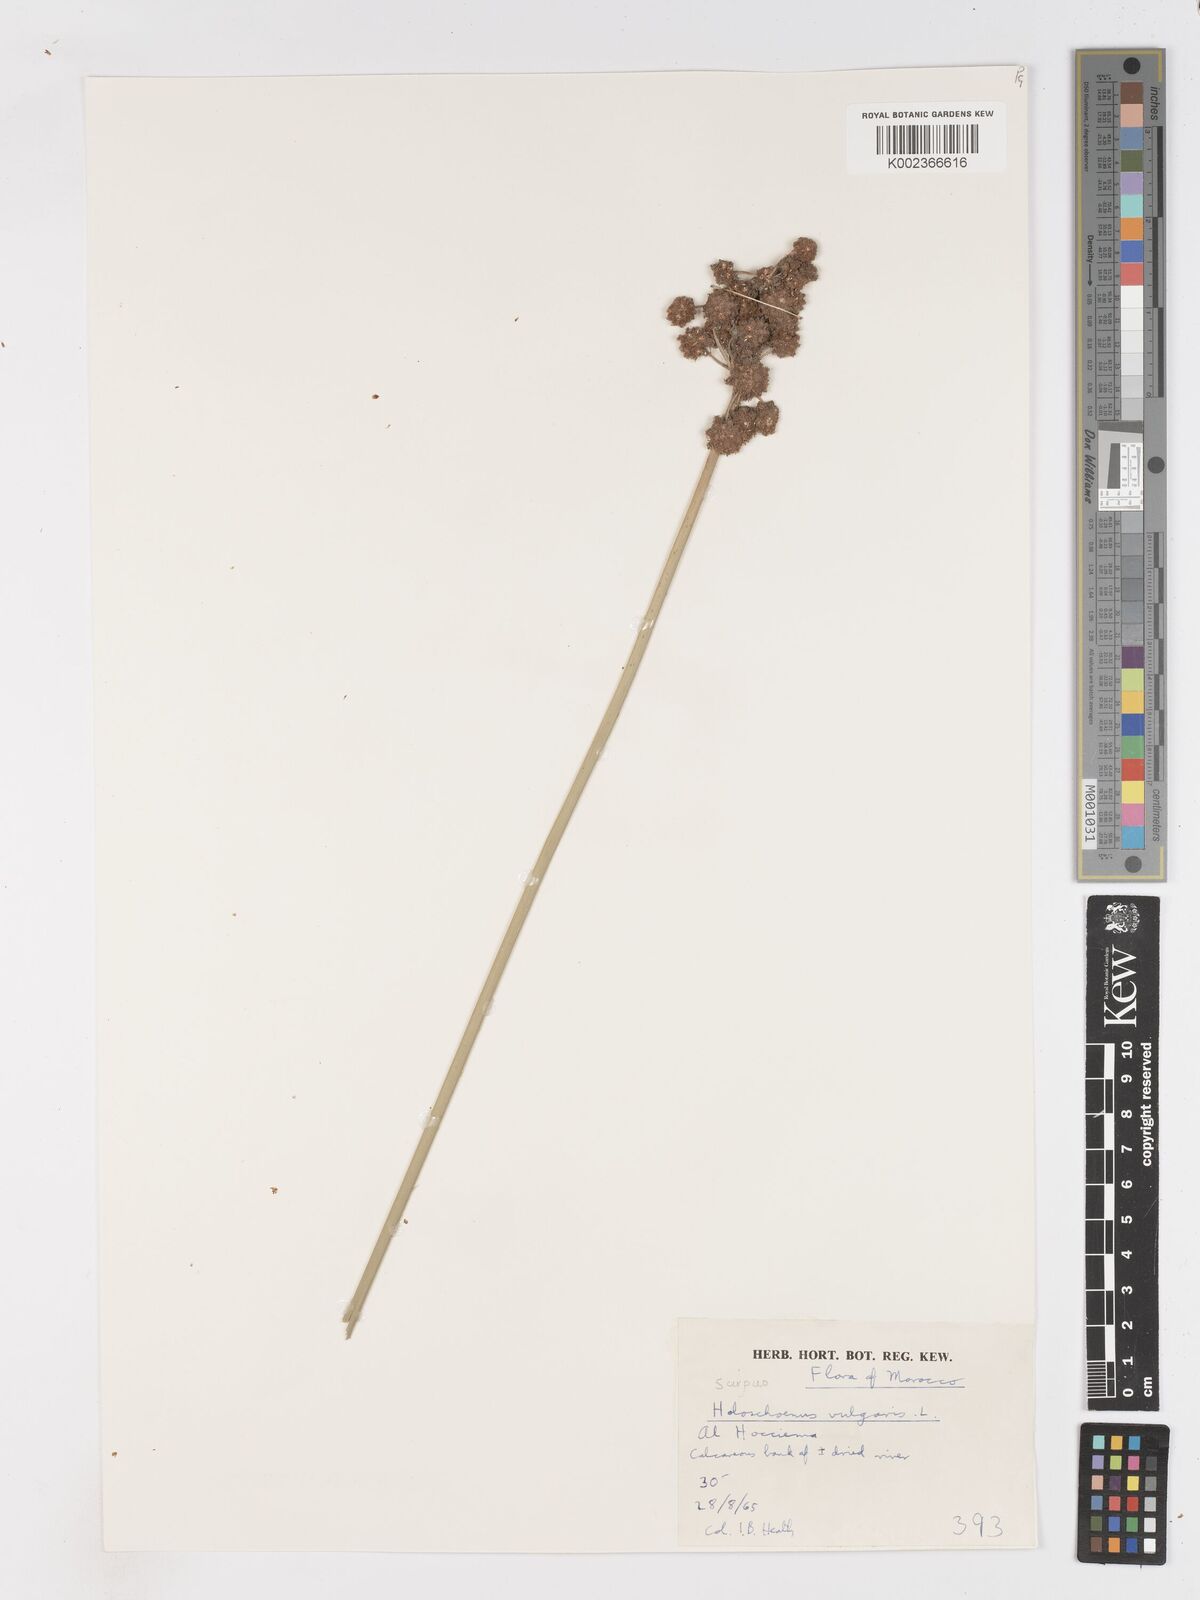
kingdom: Plantae
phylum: Tracheophyta
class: Liliopsida
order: Poales
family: Cyperaceae
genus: Scirpoides
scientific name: Scirpoides holoschoenus
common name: Round-headed club-rush
